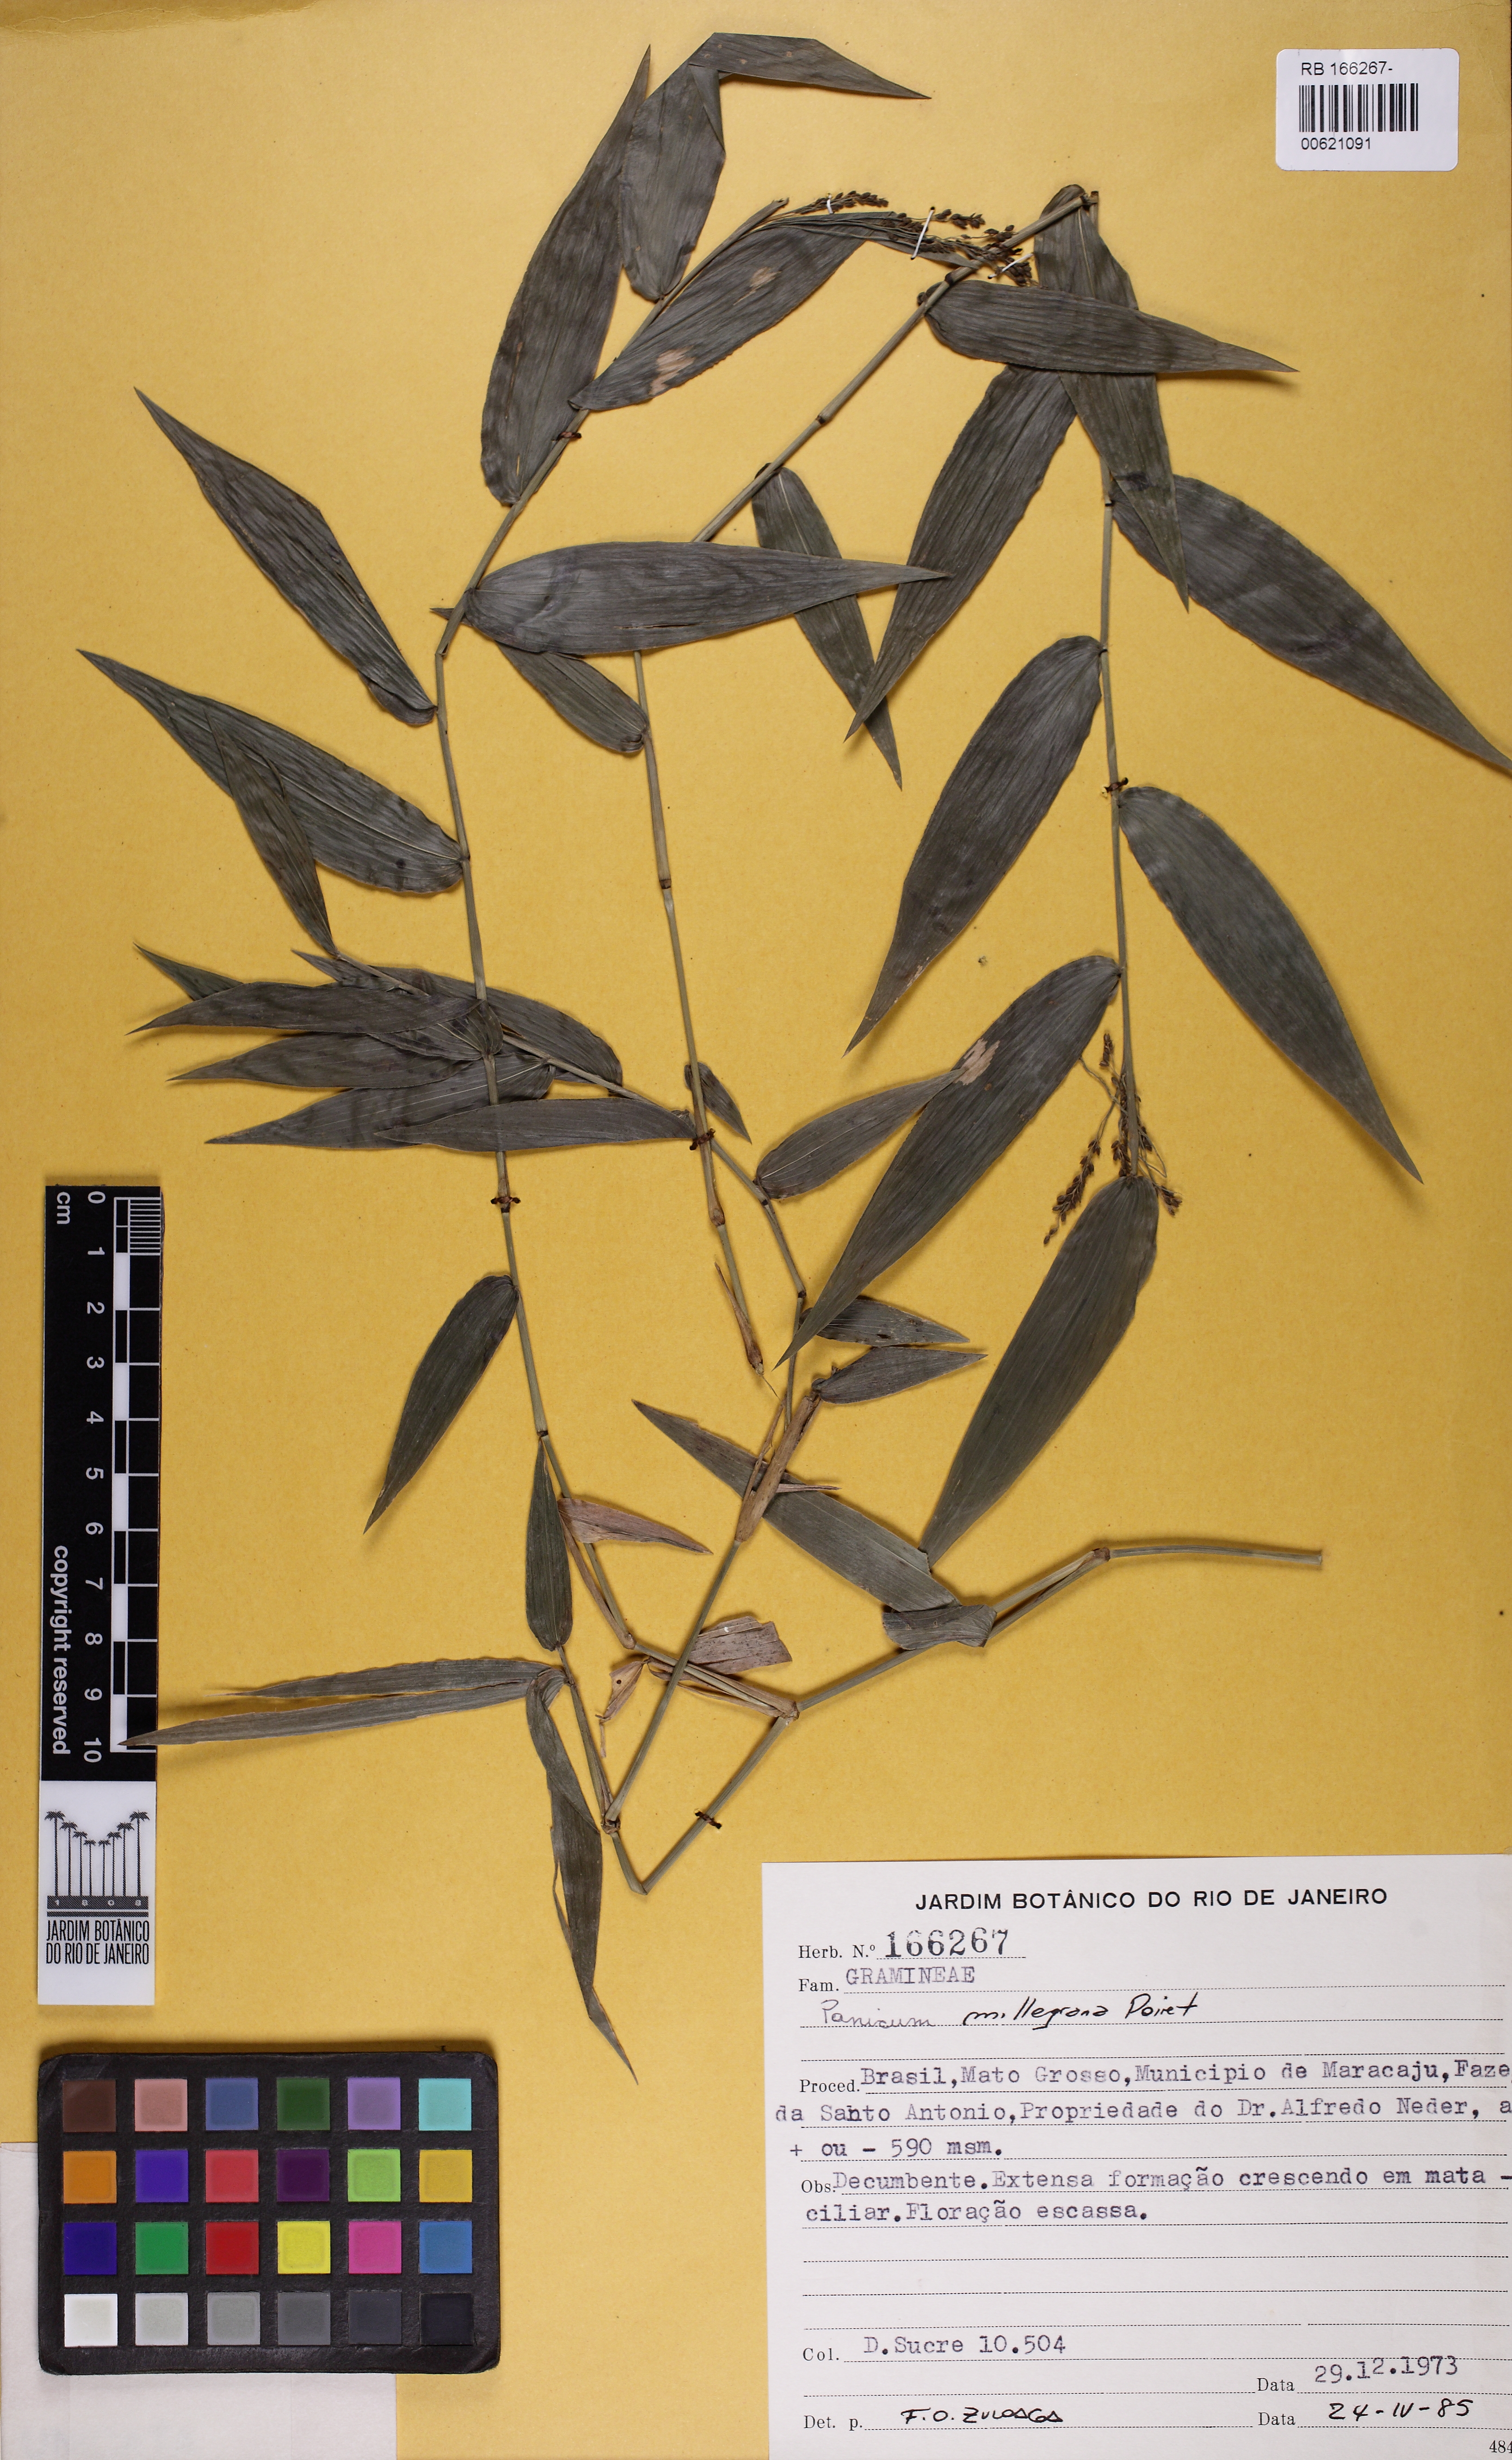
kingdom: Plantae
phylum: Tracheophyta
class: Liliopsida
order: Poales
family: Poaceae
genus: Panicum
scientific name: Panicum millegrana
